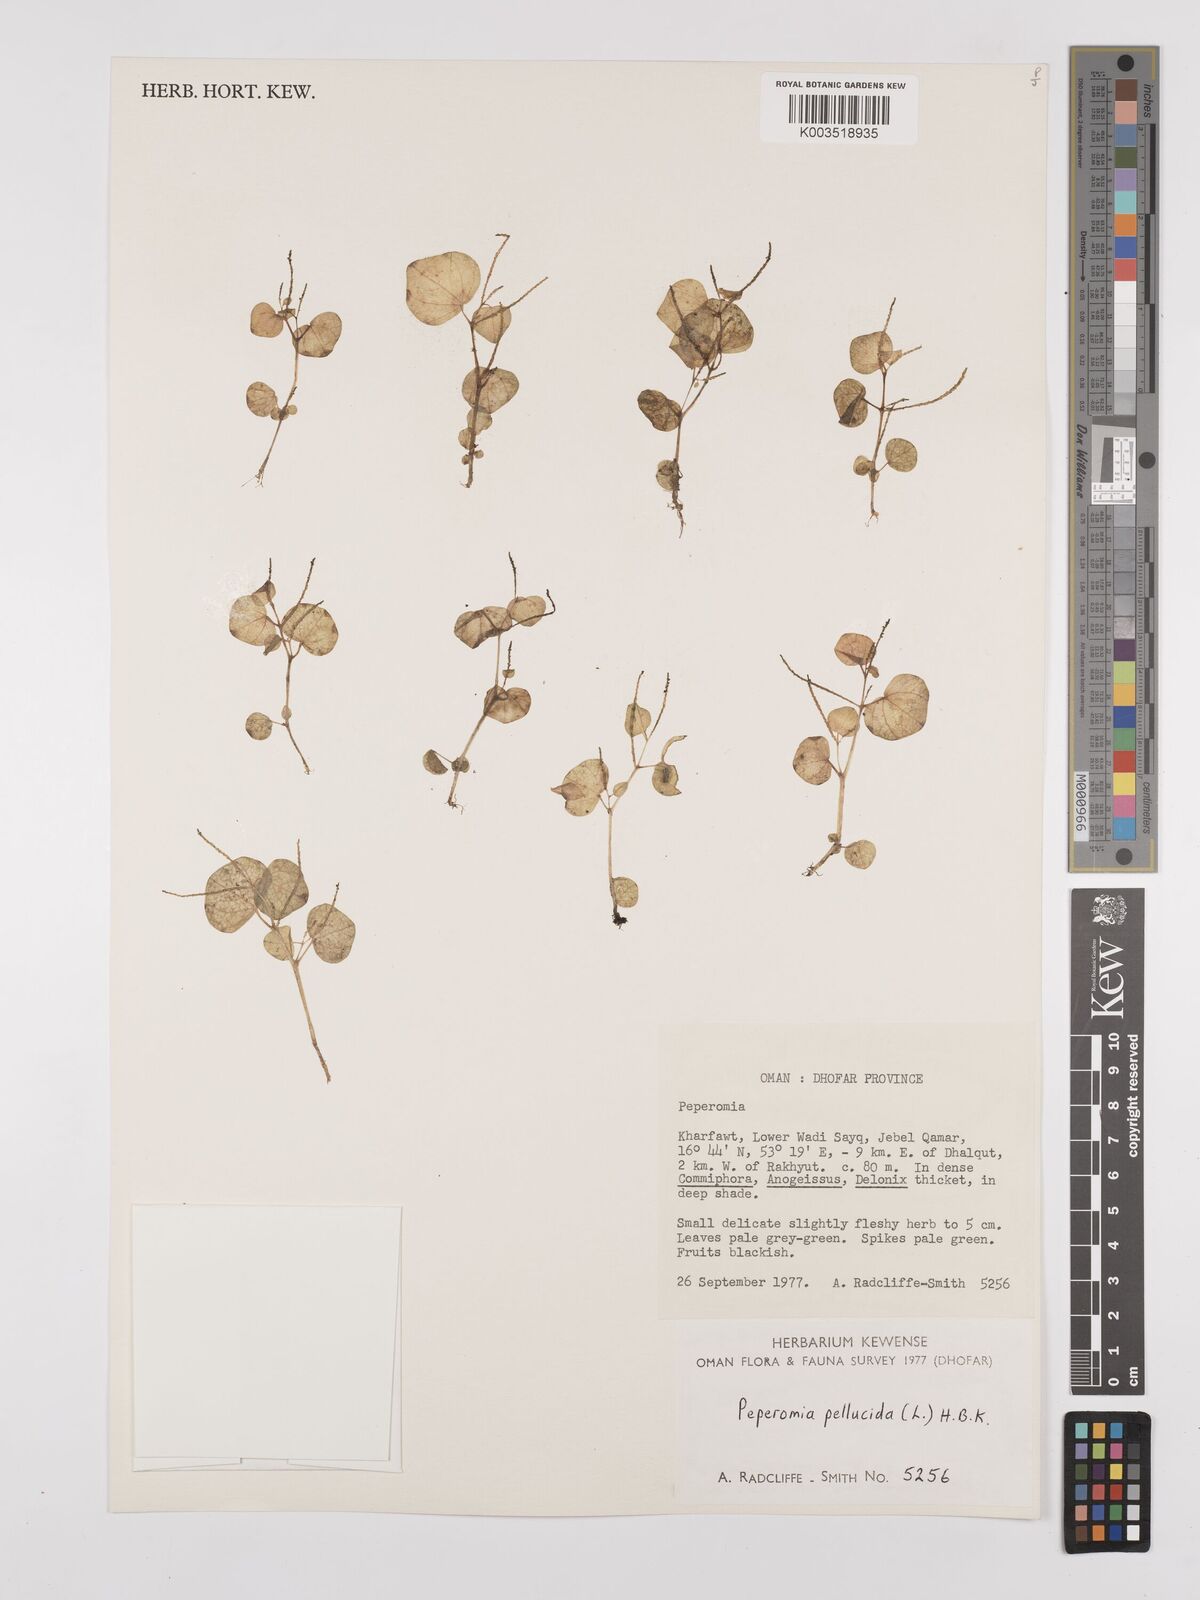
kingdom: Plantae
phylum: Tracheophyta
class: Magnoliopsida
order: Piperales
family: Piperaceae
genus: Peperomia
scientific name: Peperomia pellucida
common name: Man to man
